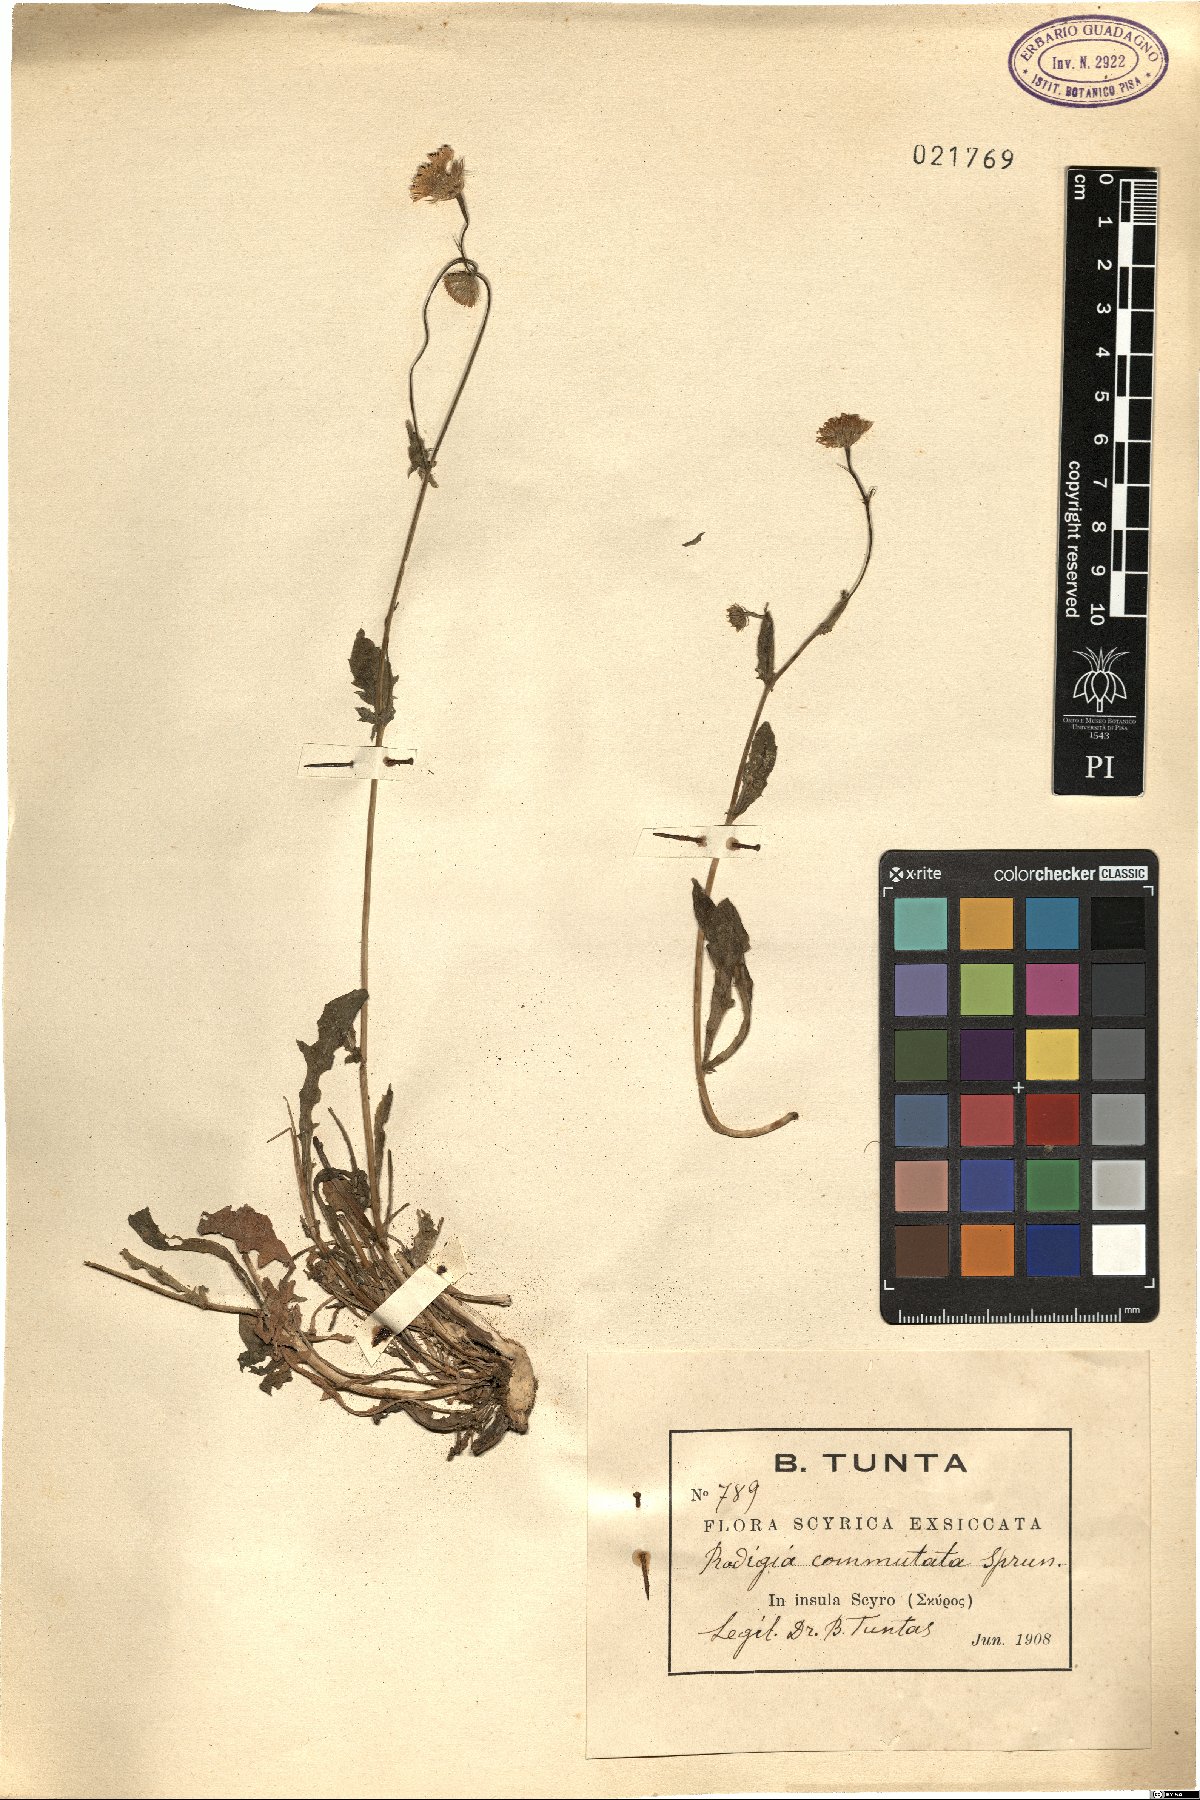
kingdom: Plantae
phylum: Tracheophyta
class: Magnoliopsida
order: Asterales
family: Asteraceae
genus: Crepis
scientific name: Crepis commutata
